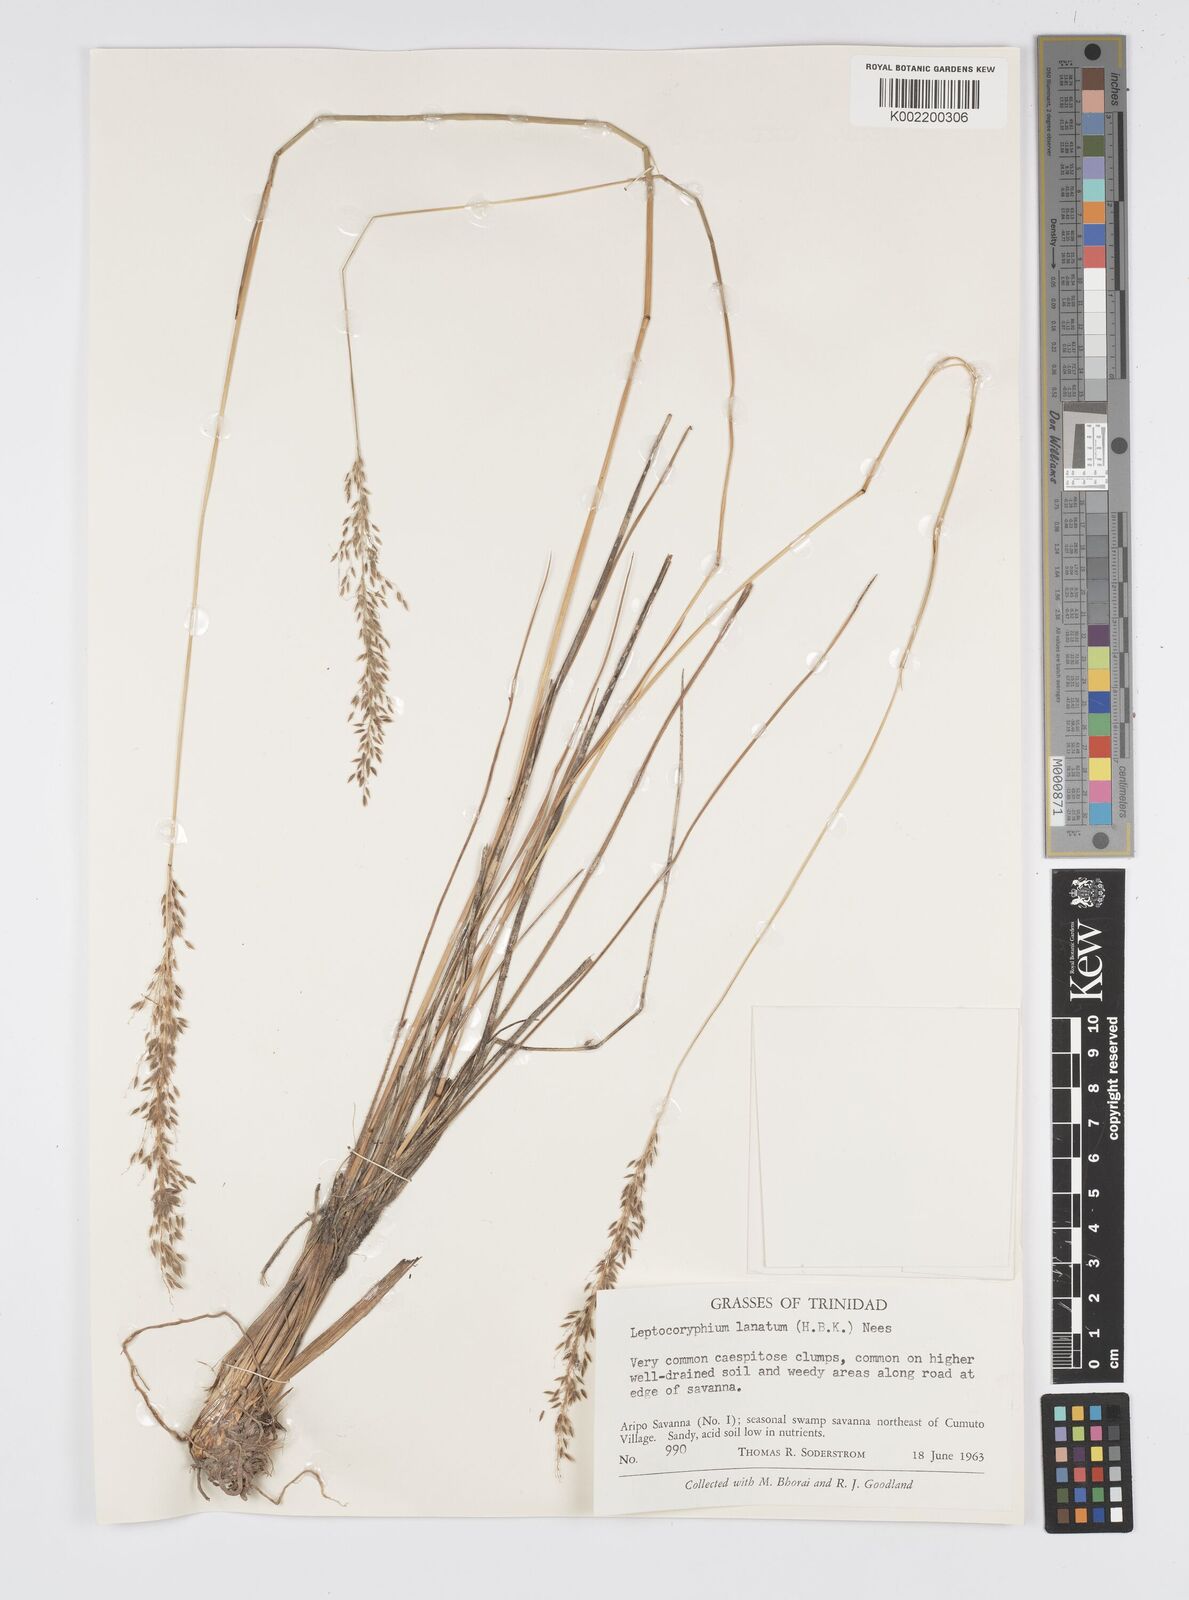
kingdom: Plantae
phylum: Tracheophyta
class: Liliopsida
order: Poales
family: Poaceae
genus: Anthenantia
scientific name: Anthenantia lanata
